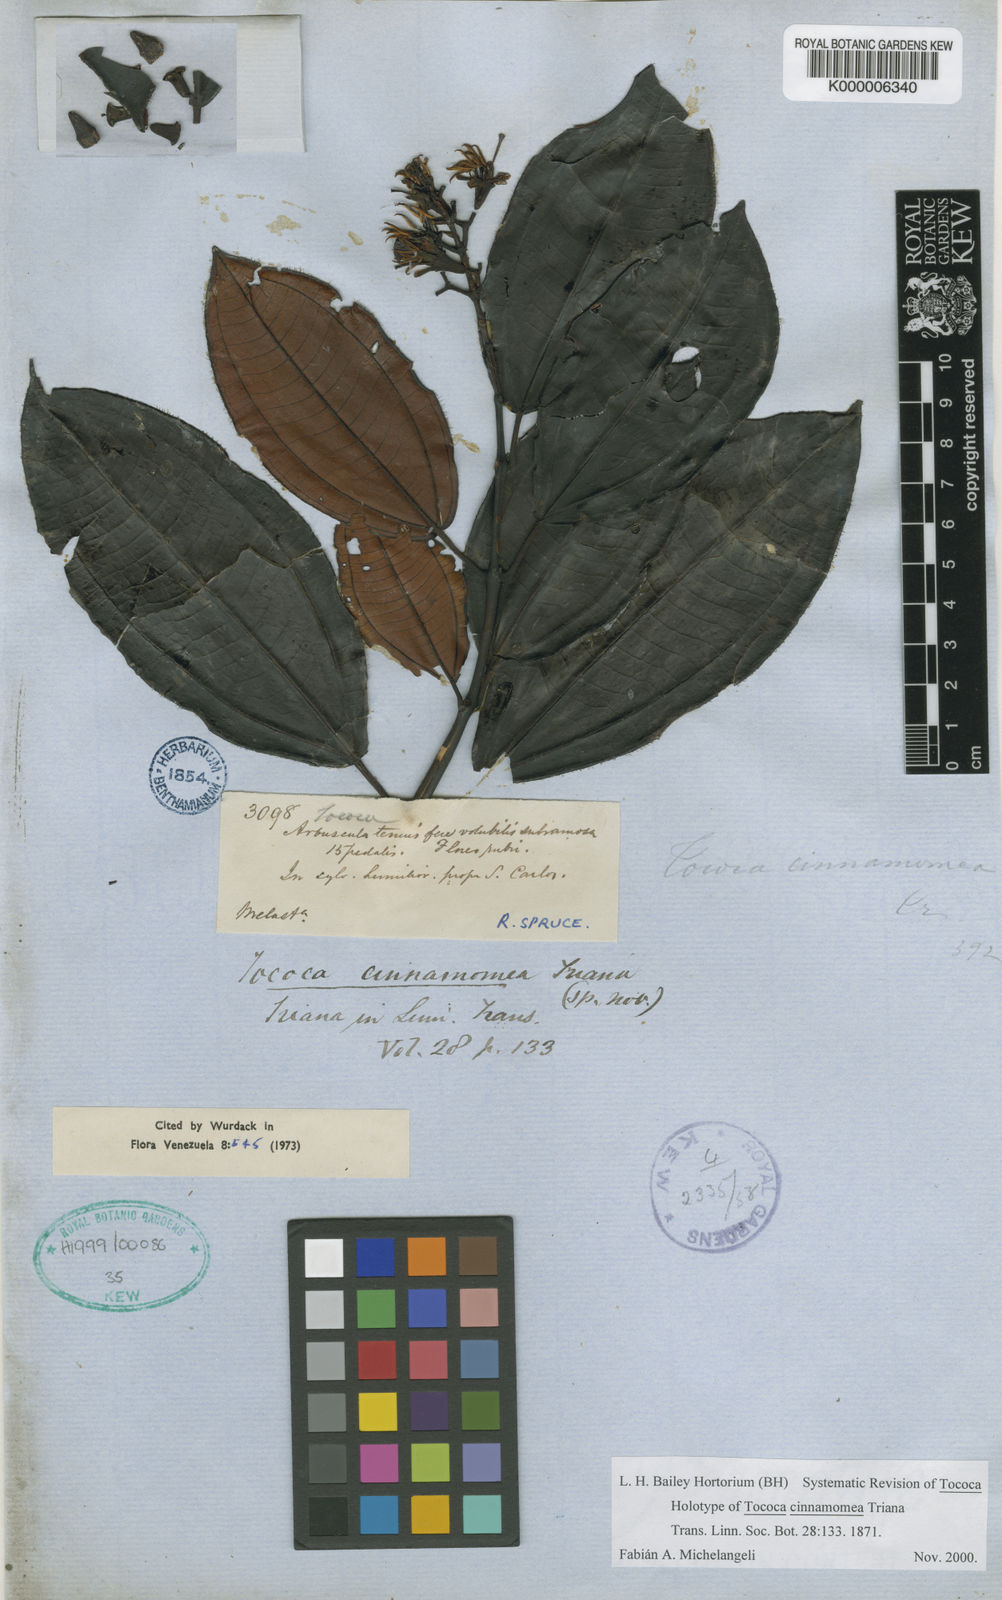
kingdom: Plantae
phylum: Tracheophyta
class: Magnoliopsida
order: Myrtales
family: Melastomataceae
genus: Miconia
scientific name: Miconia tococinnamomea
